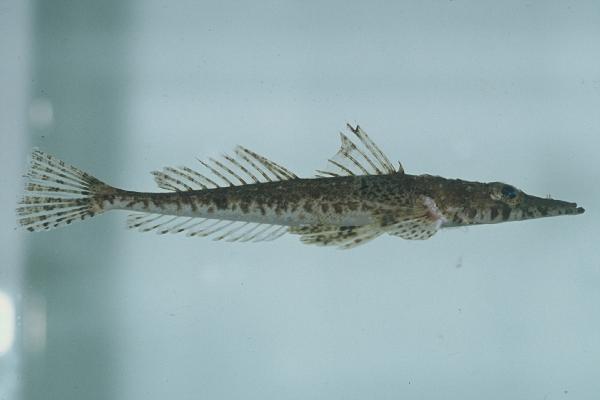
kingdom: Animalia
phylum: Chordata
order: Scorpaeniformes
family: Platycephalidae
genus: Platycephalus
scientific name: Platycephalus
